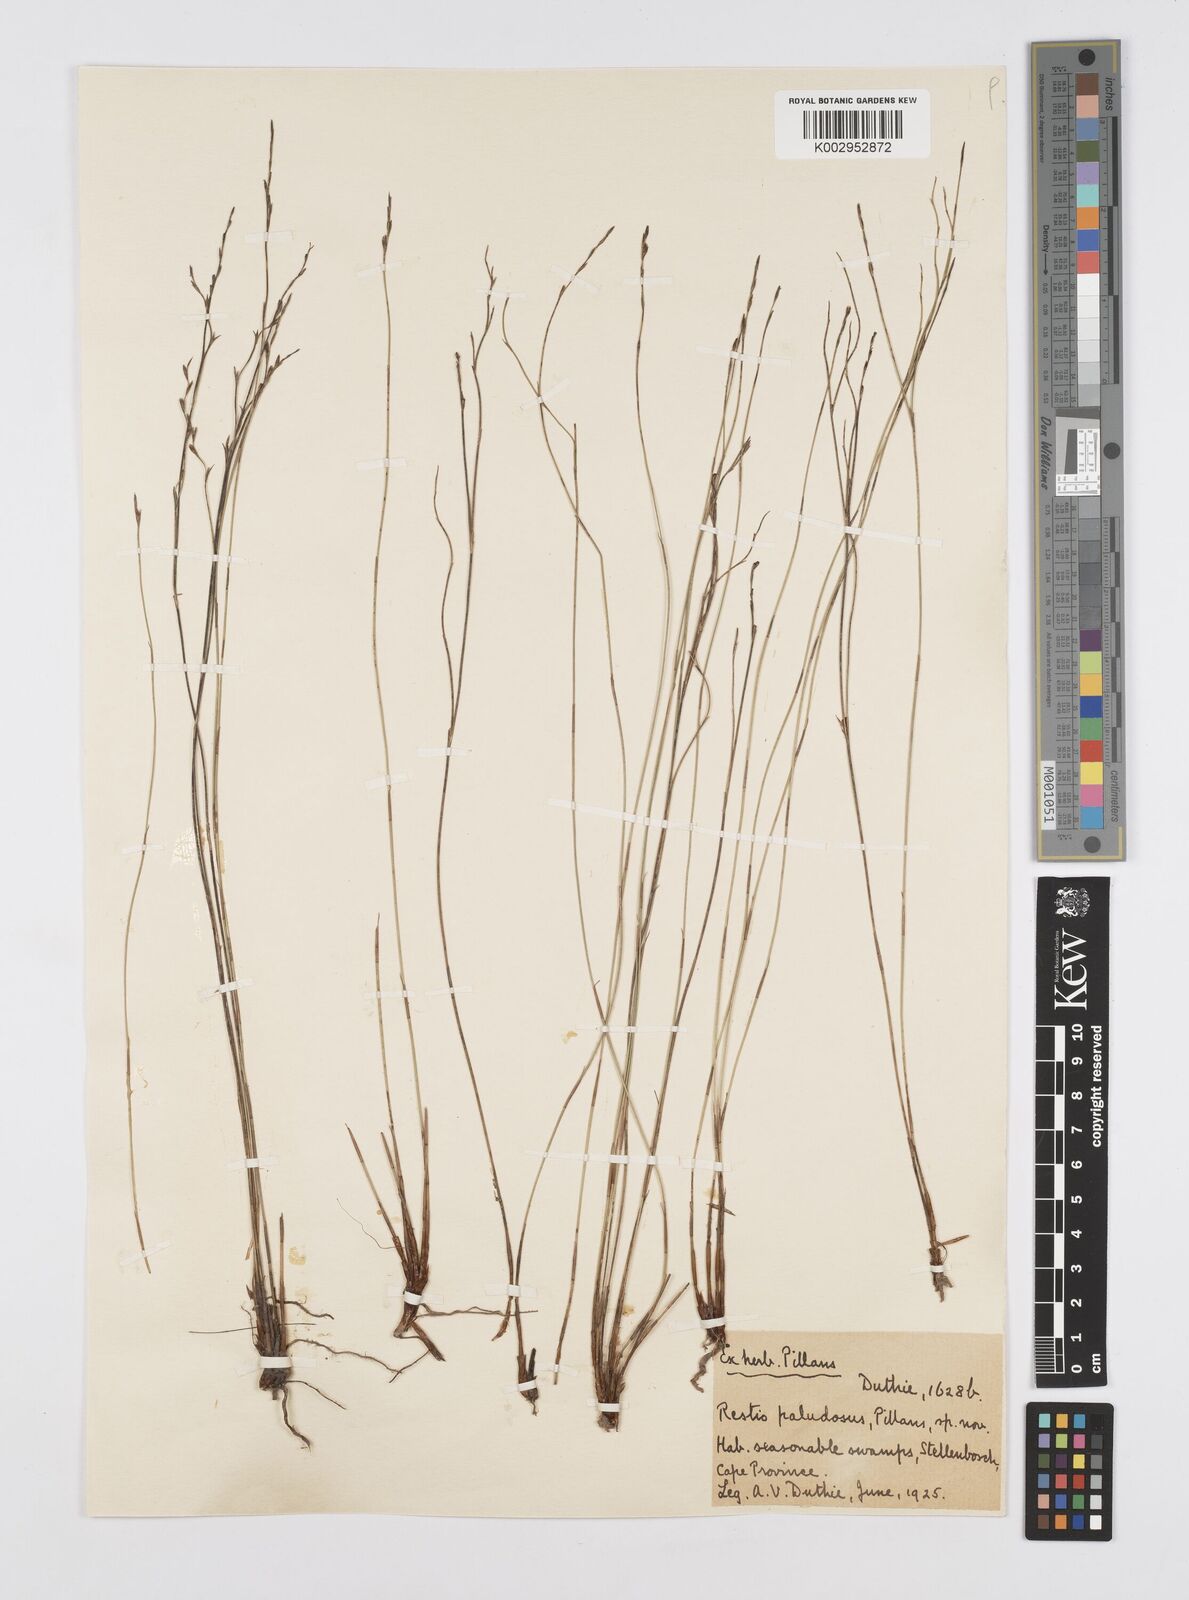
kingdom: Plantae
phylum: Tracheophyta
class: Liliopsida
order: Poales
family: Restionaceae
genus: Restio
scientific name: Restio paludosus
